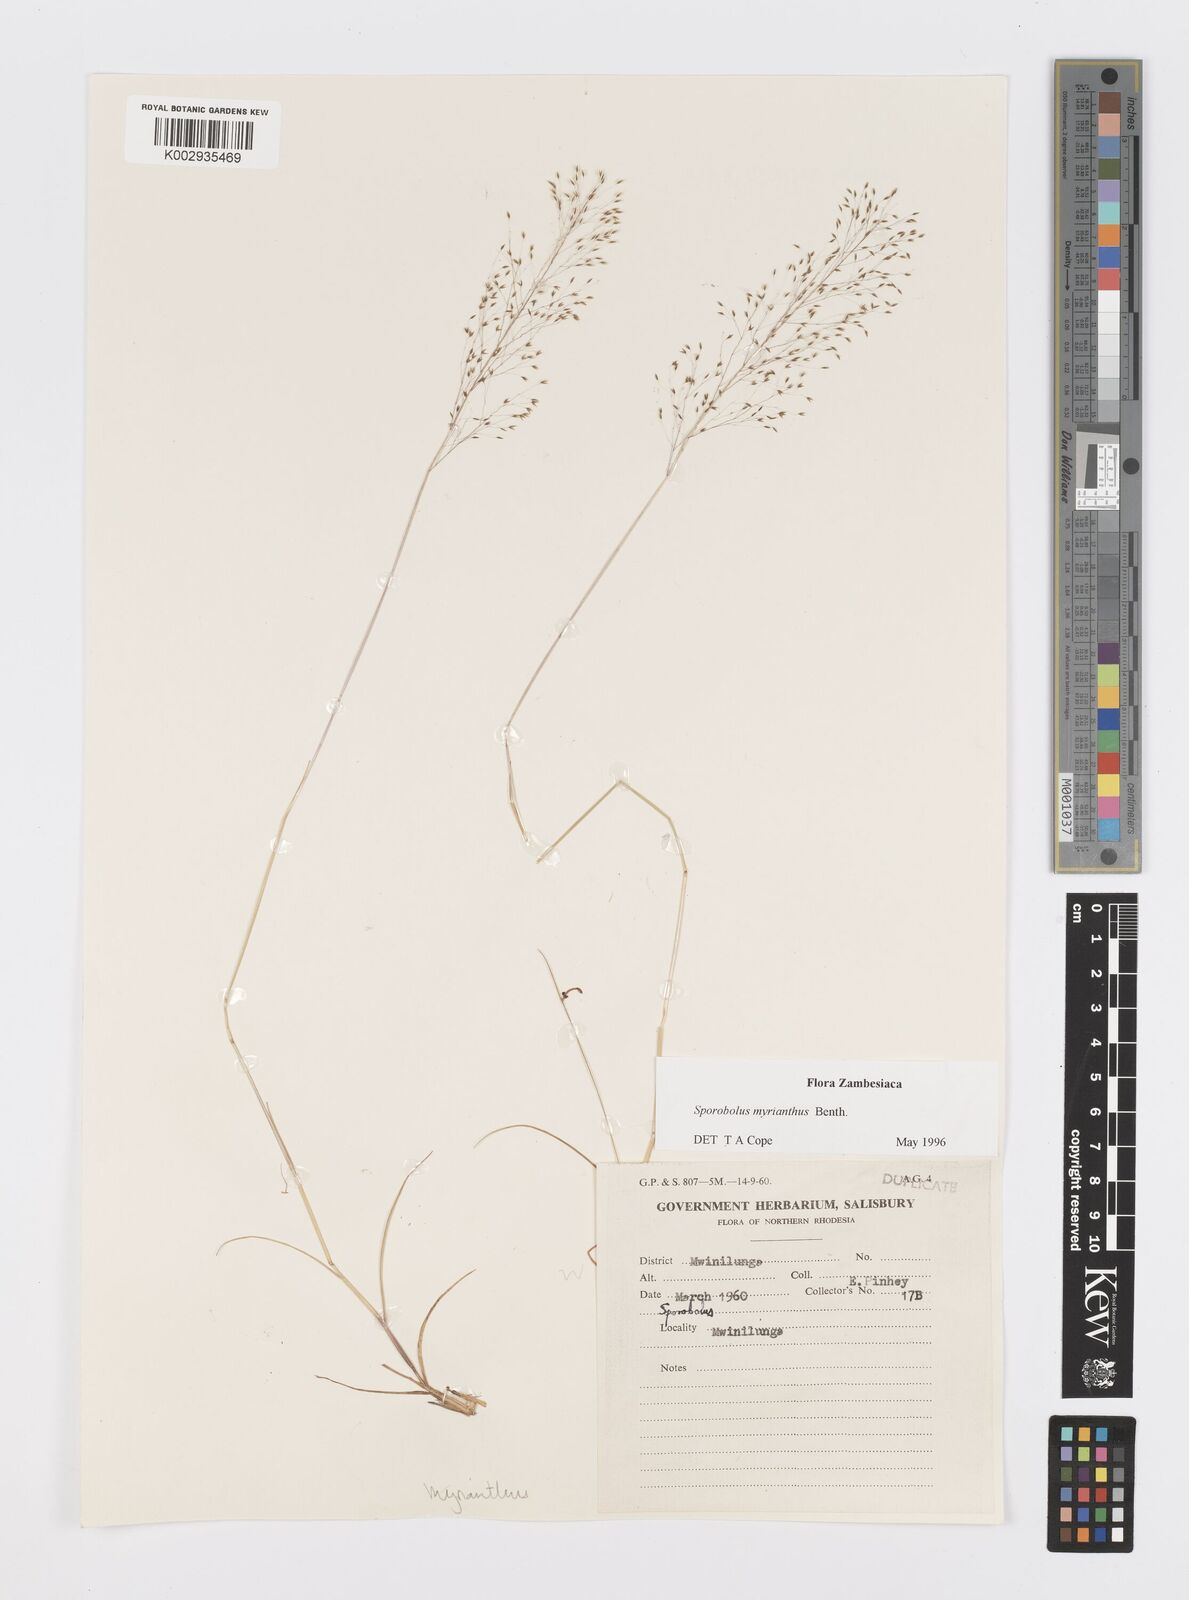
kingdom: Plantae
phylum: Tracheophyta
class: Liliopsida
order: Poales
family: Poaceae
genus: Sporobolus
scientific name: Sporobolus myrianthus
